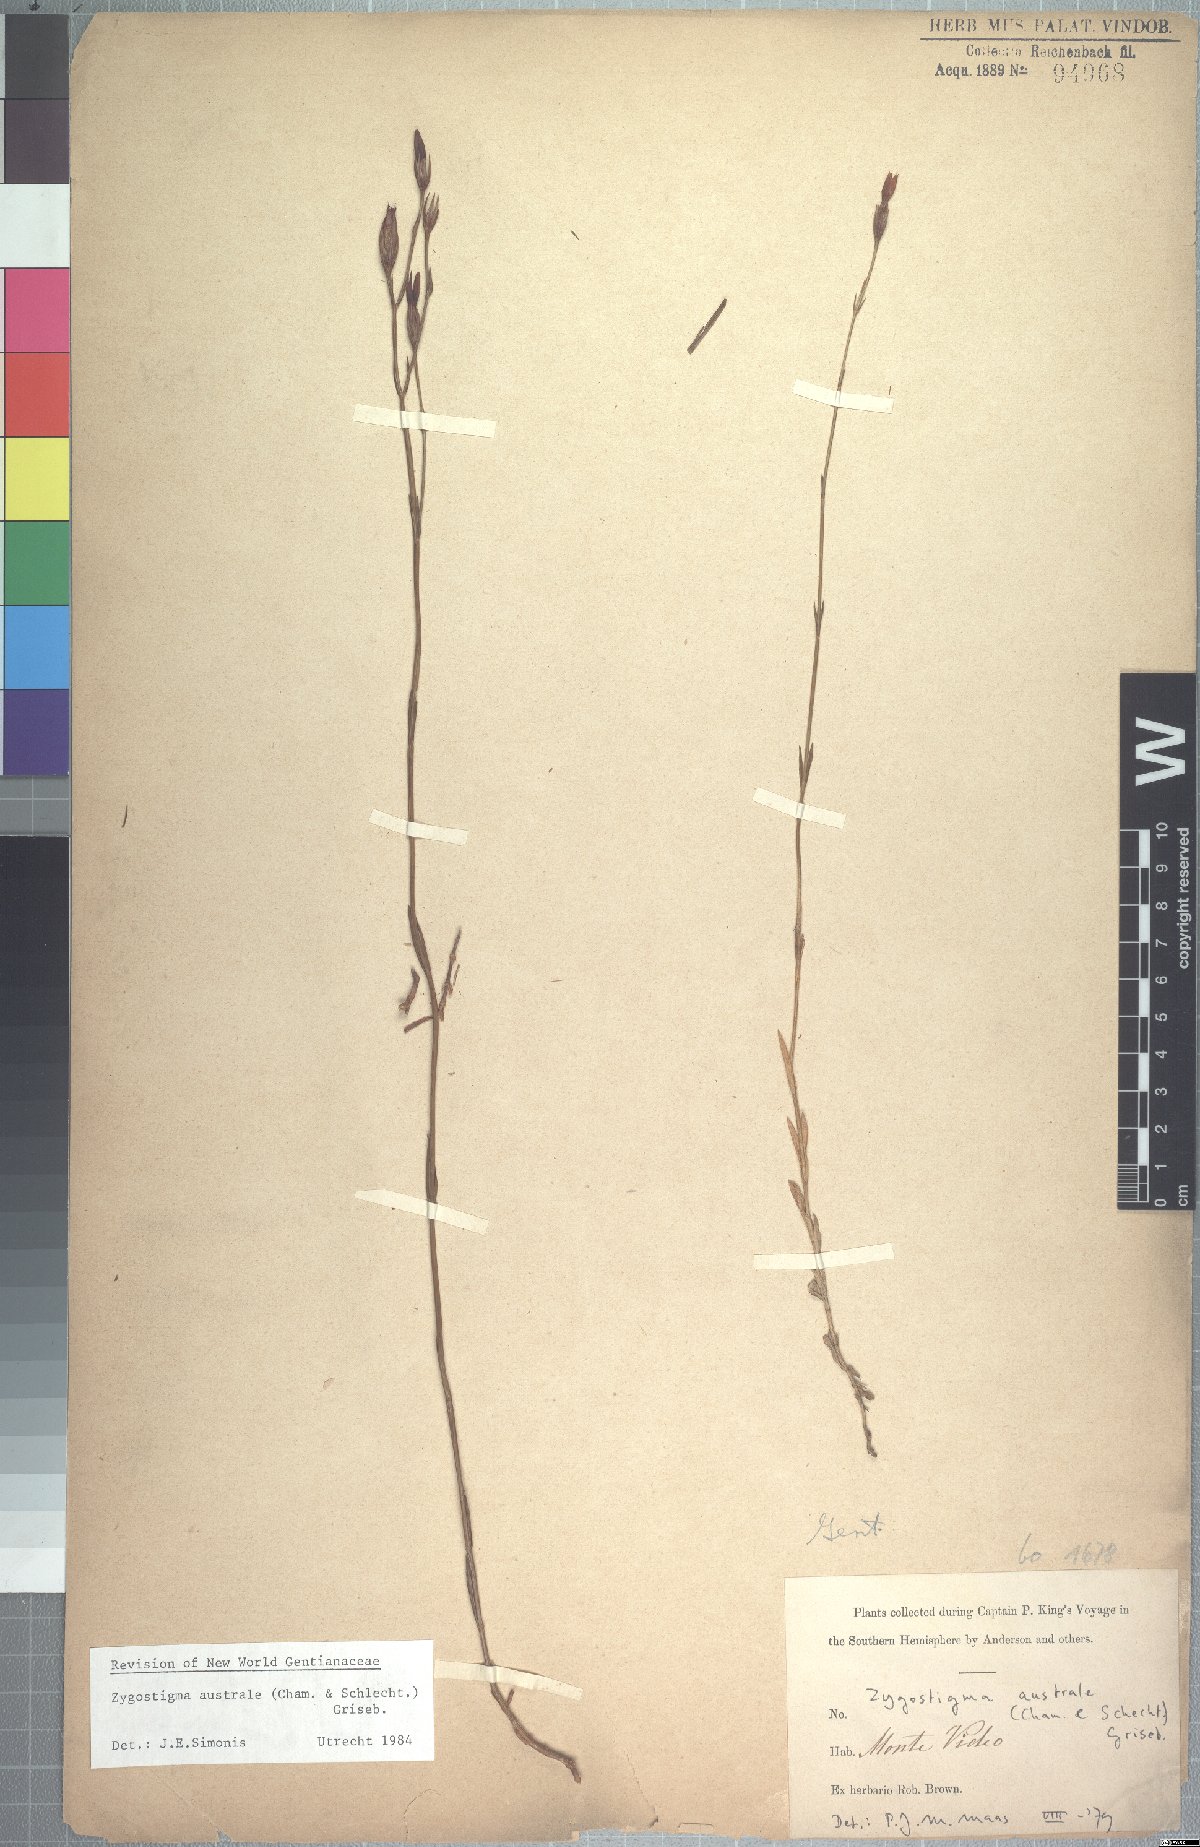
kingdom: Plantae
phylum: Tracheophyta
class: Magnoliopsida
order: Gentianales
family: Gentianaceae
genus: Zygostigma
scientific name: Zygostigma australe
